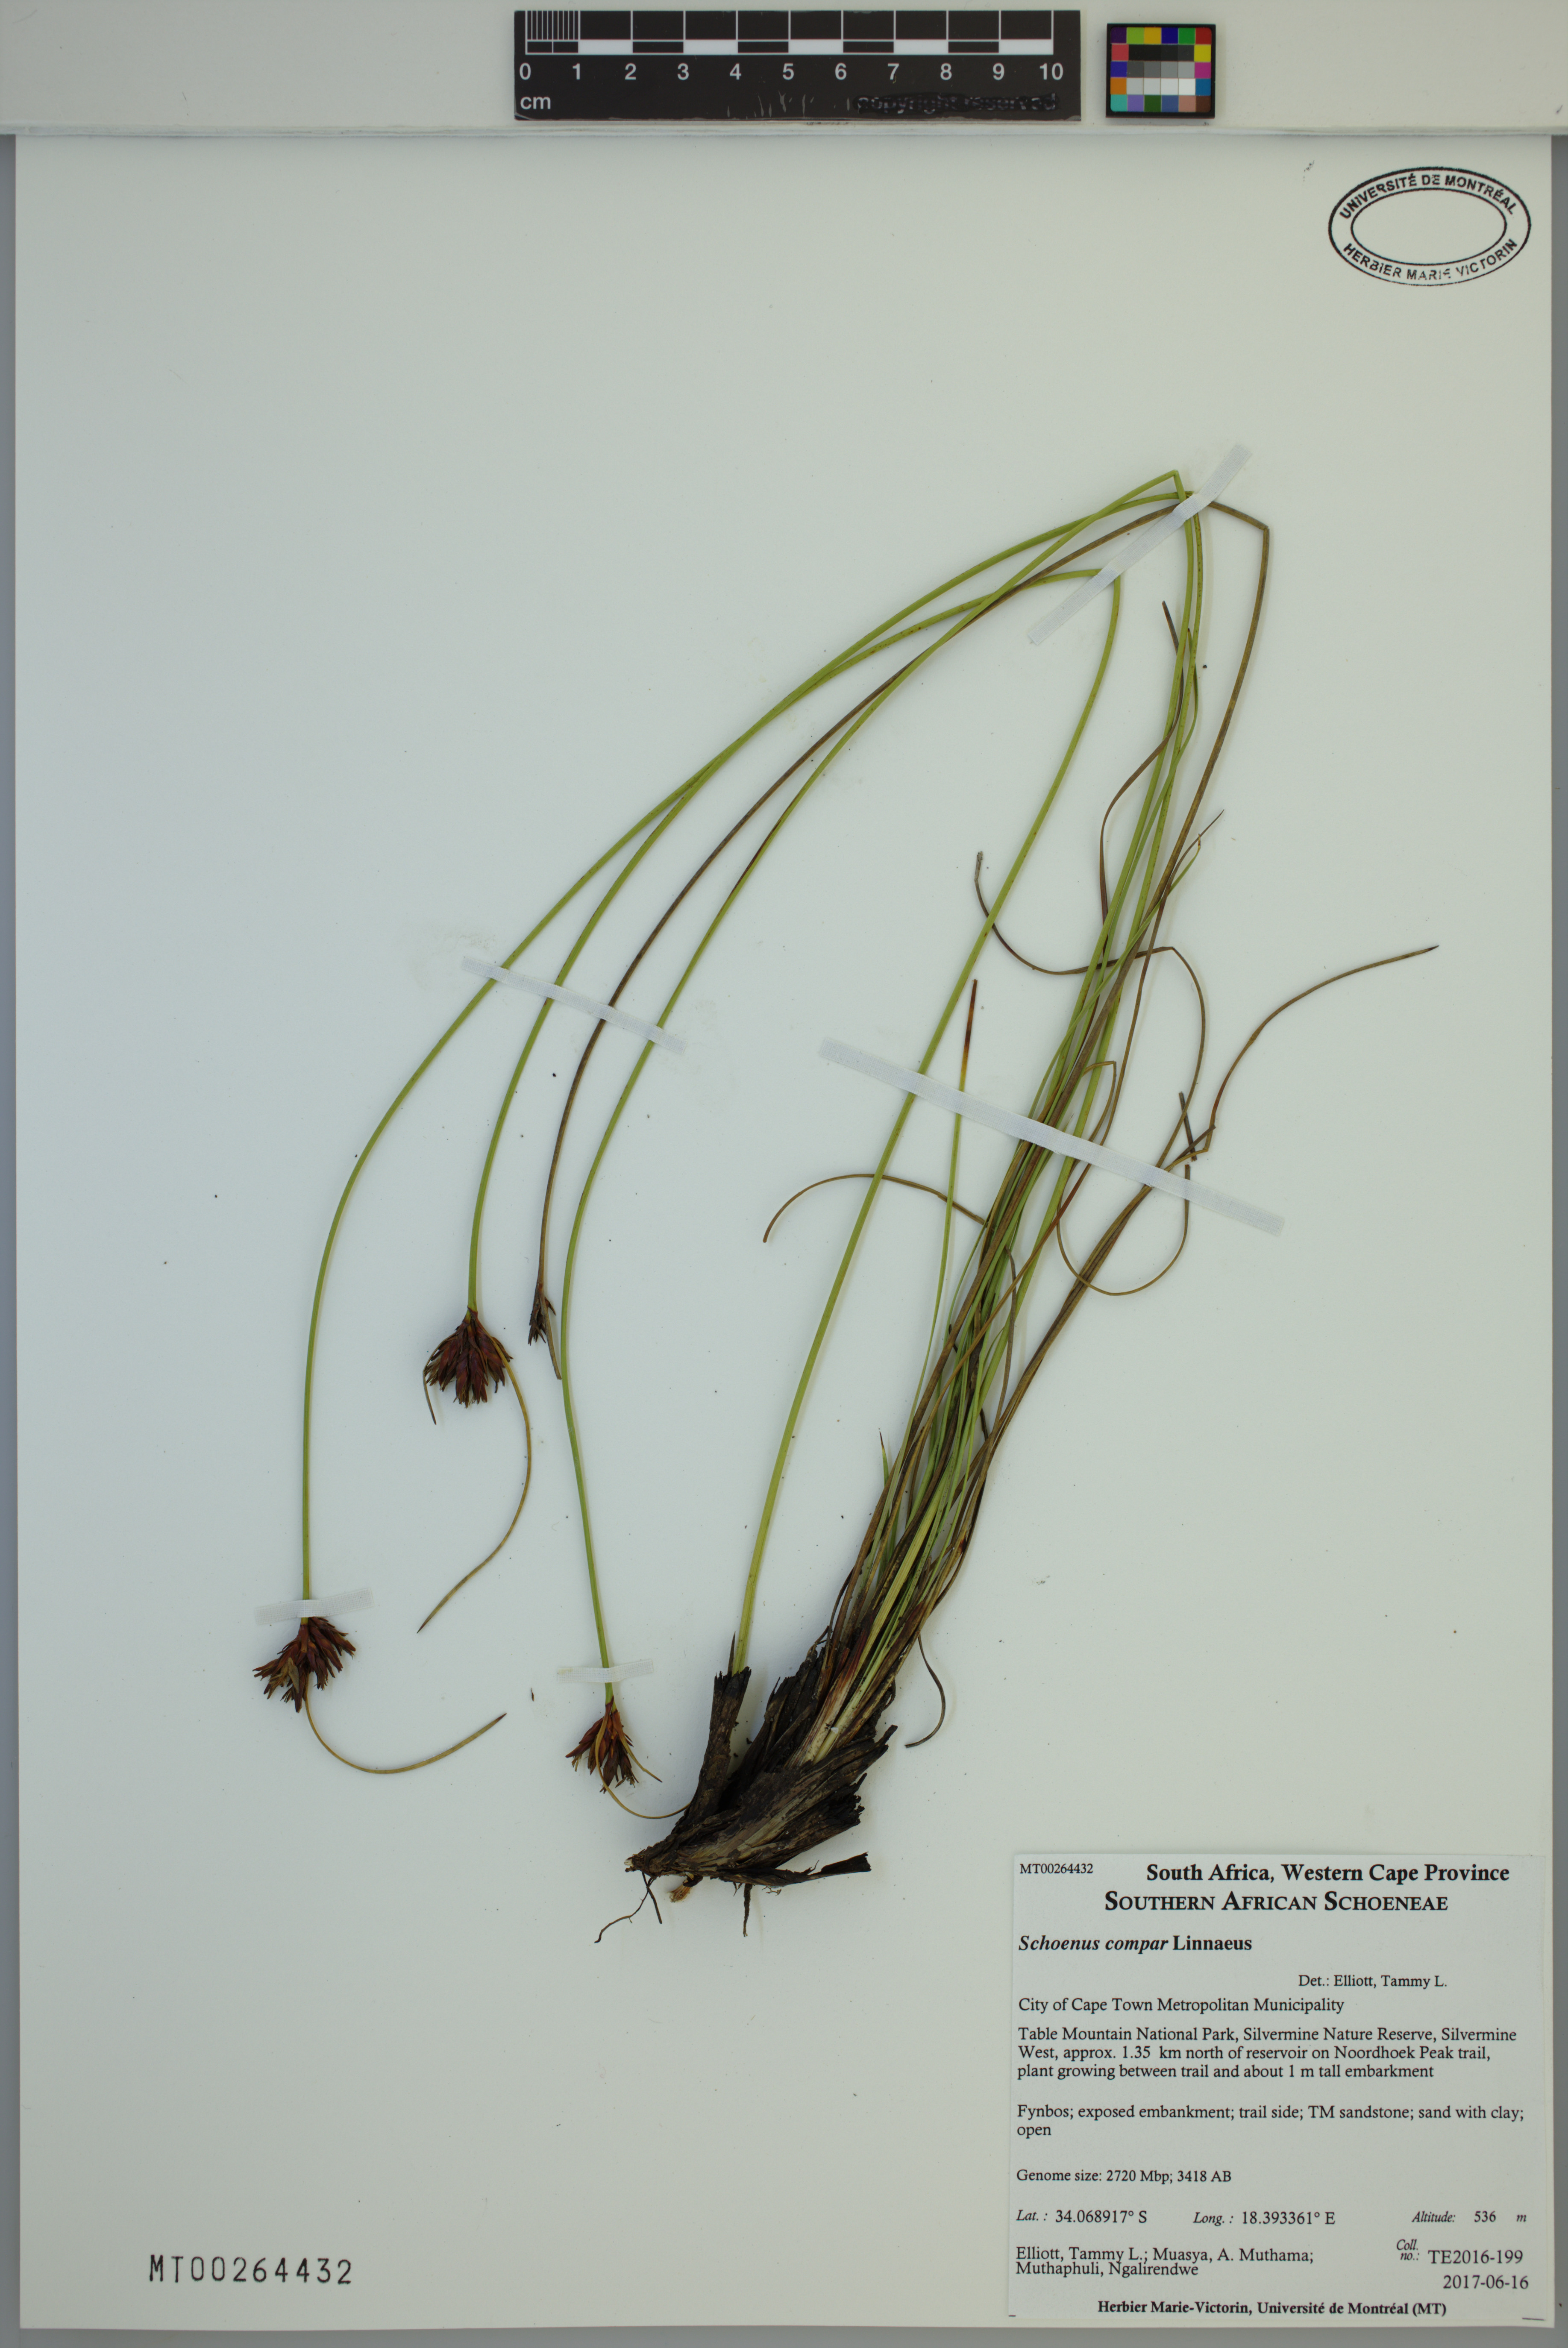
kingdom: Plantae
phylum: Tracheophyta
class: Liliopsida
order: Poales
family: Cyperaceae
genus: Schoenus
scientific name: Schoenus compar
